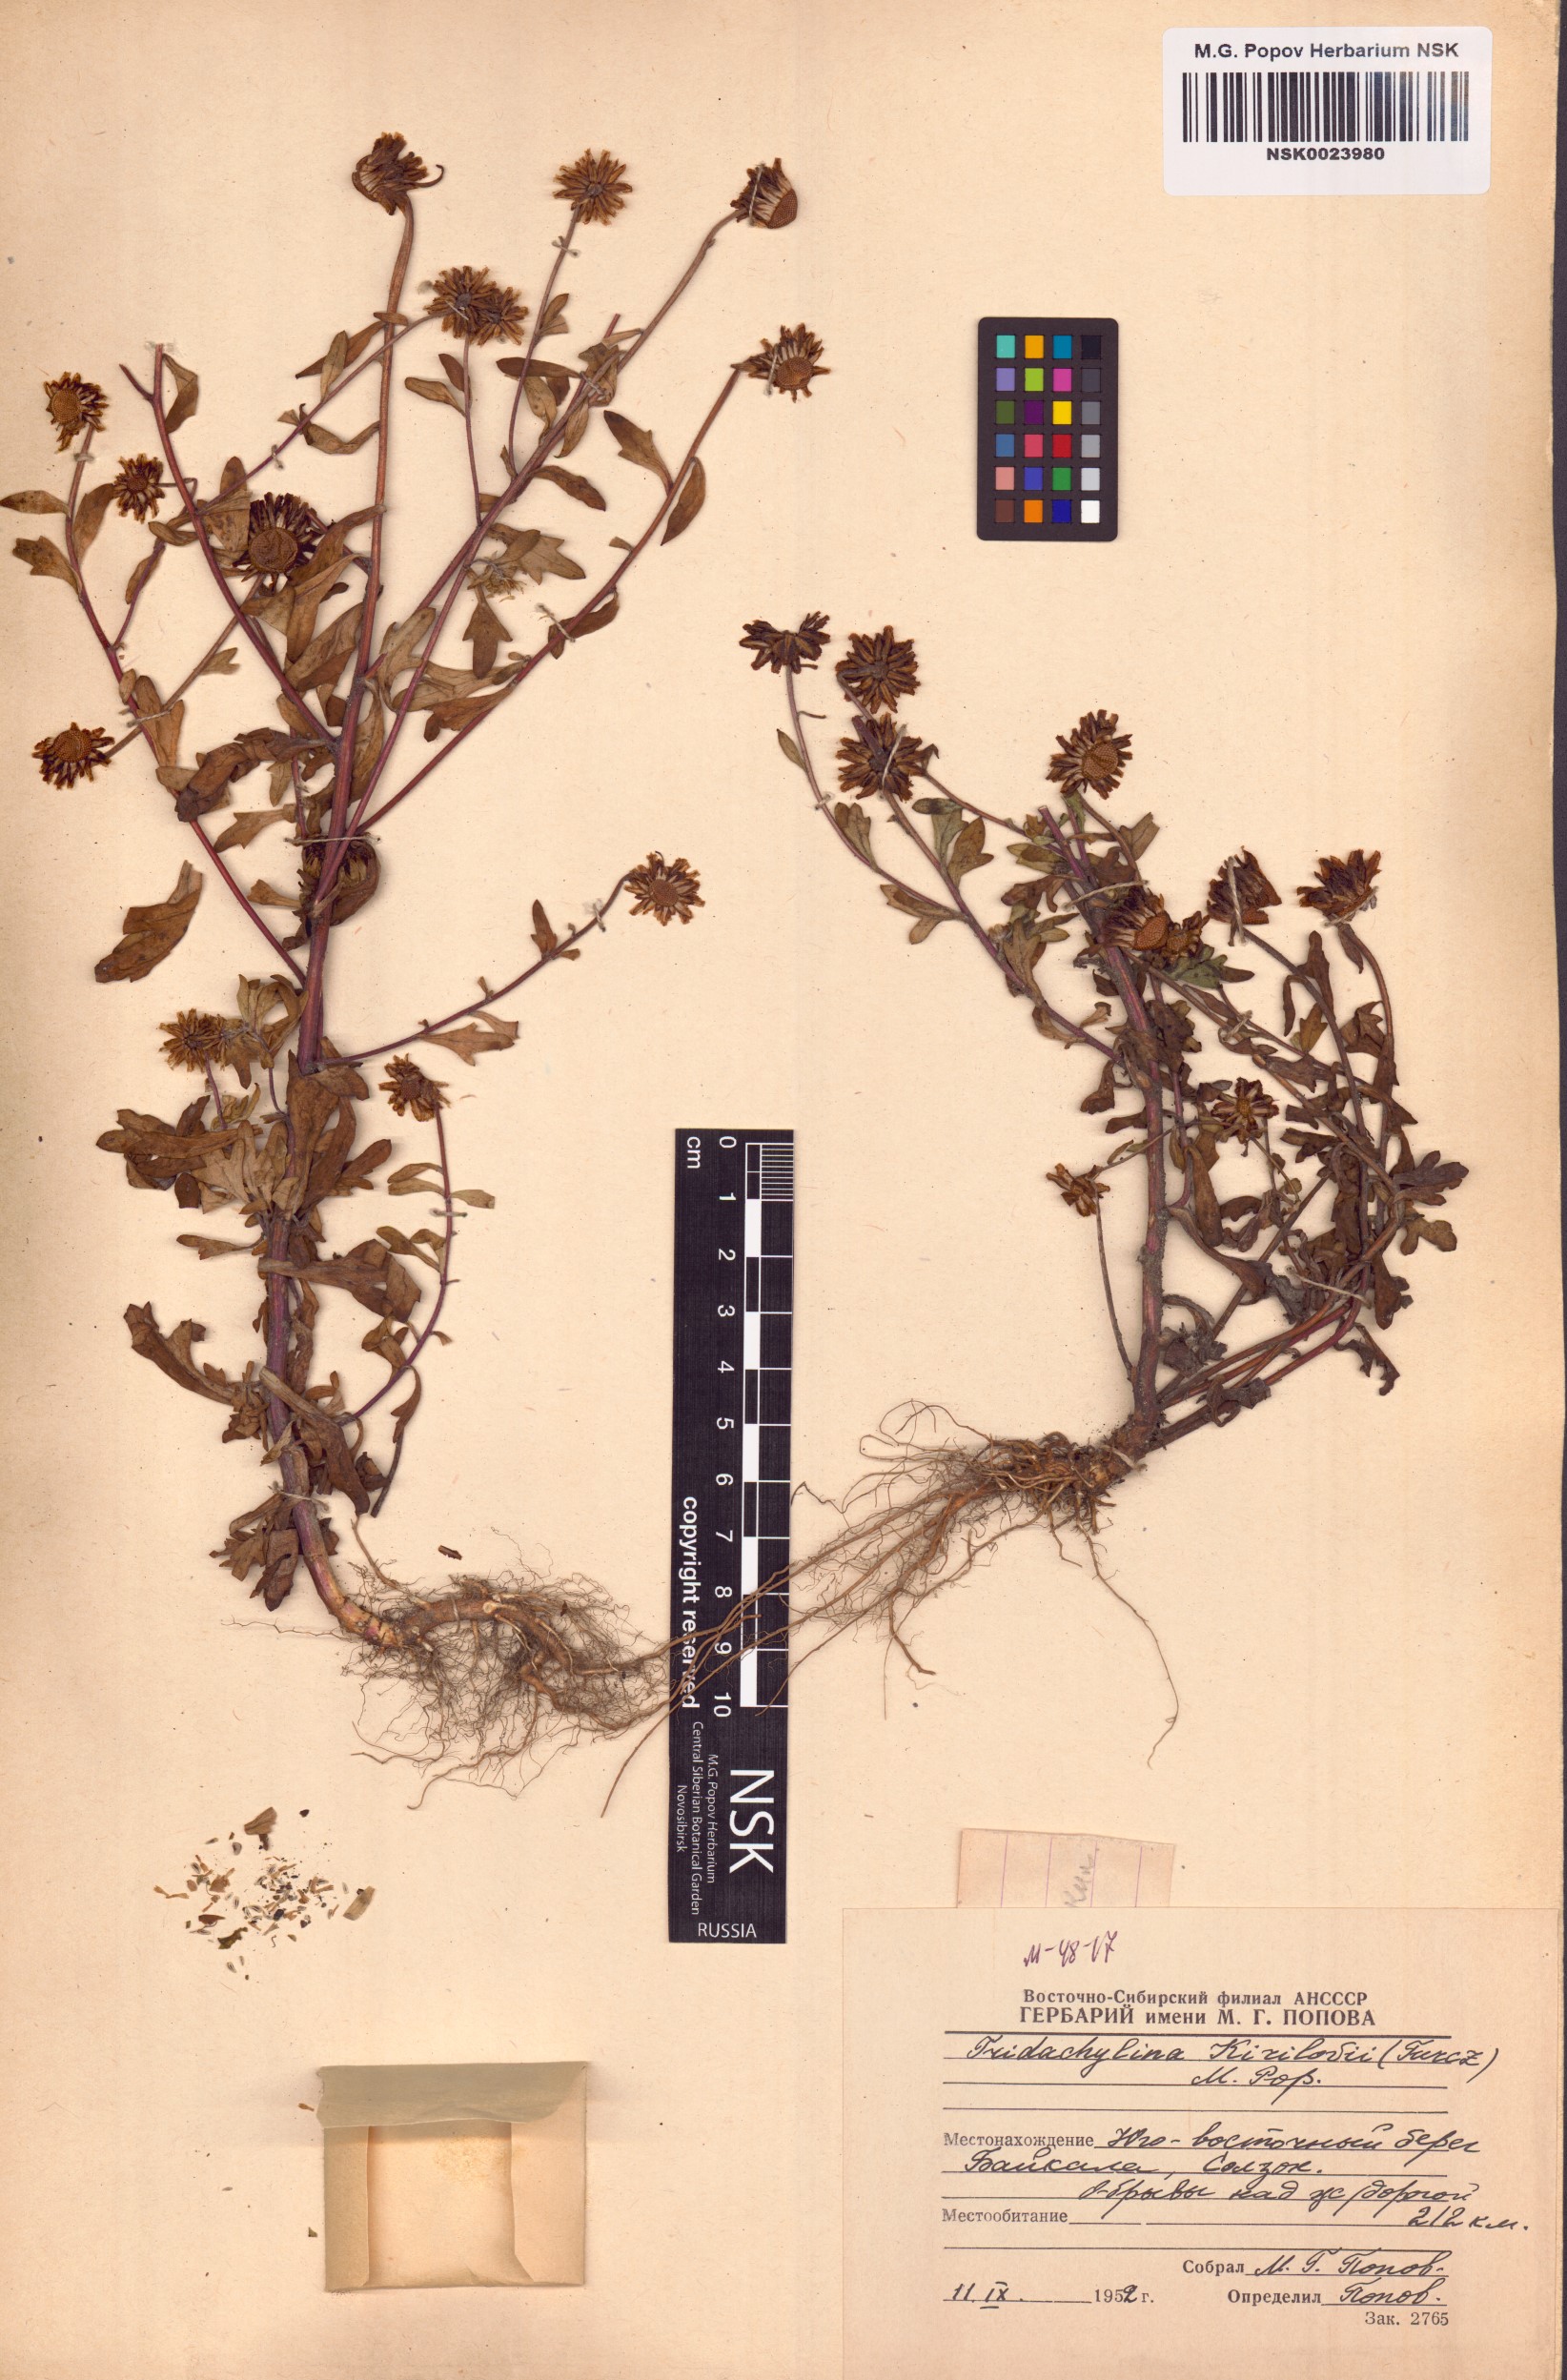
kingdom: Plantae
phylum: Tracheophyta
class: Magnoliopsida
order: Asterales
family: Asteraceae
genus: Tridactylina
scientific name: Tridactylina kirilowii
